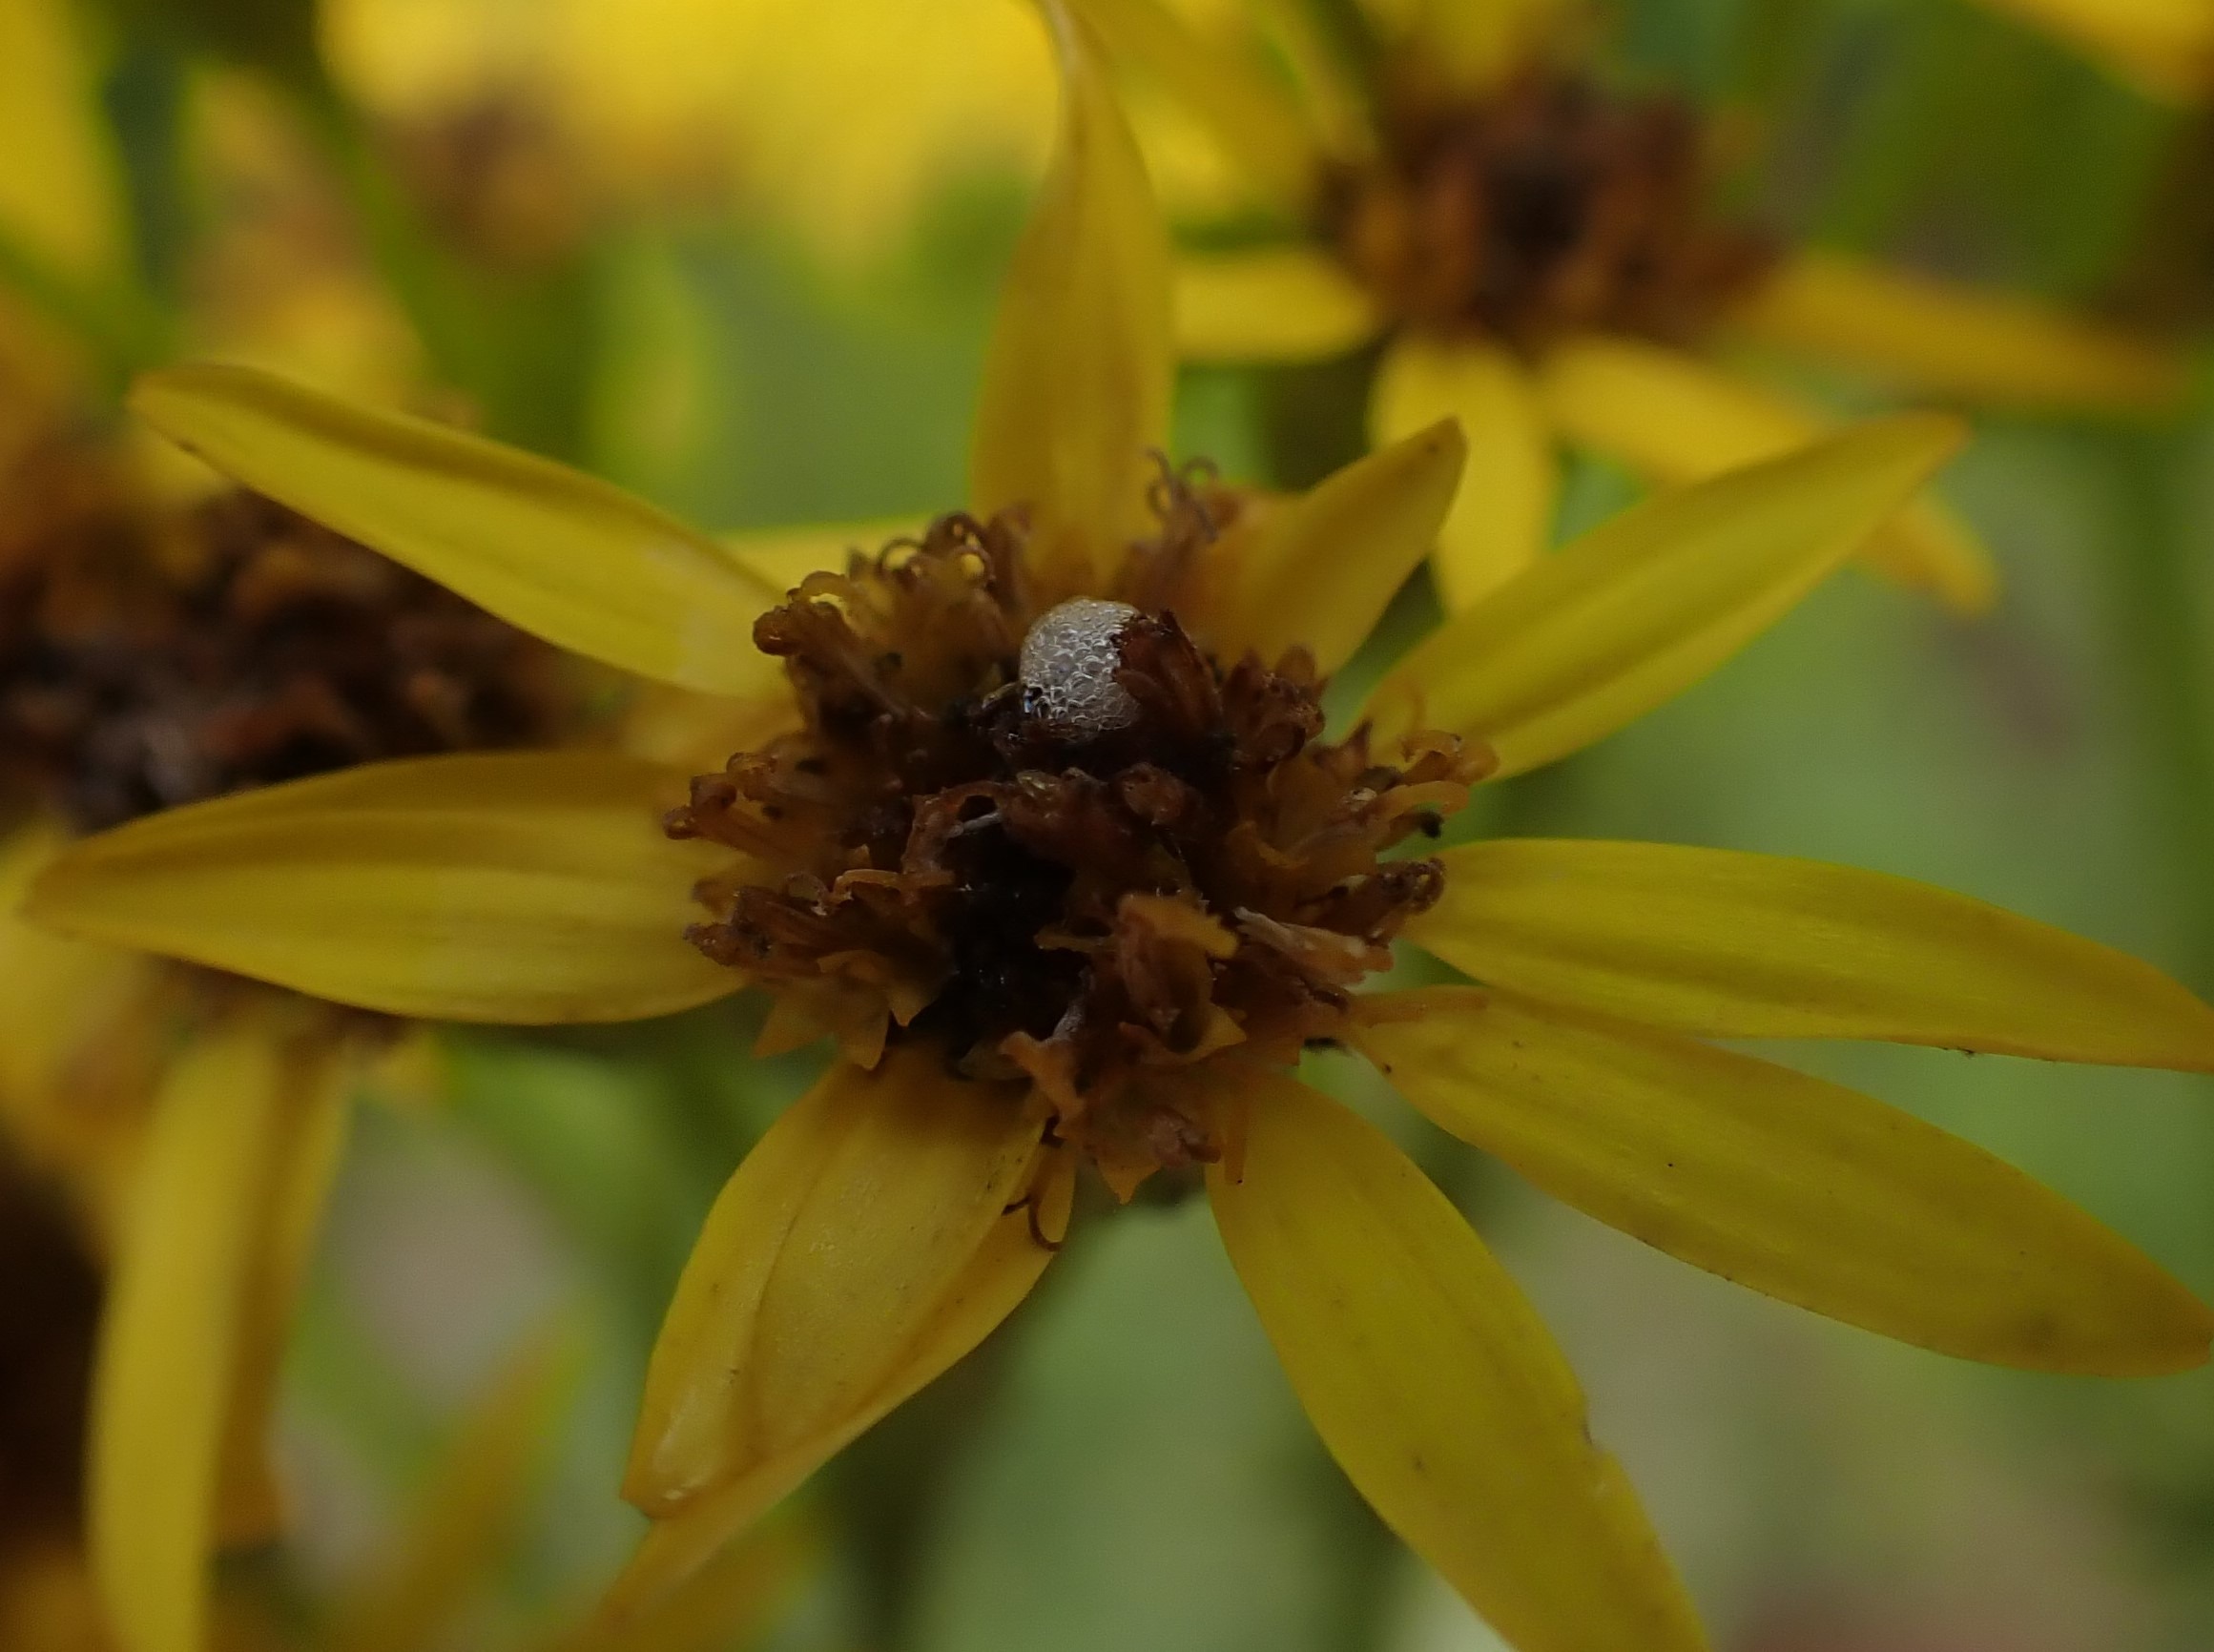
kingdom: Animalia
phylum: Arthropoda
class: Insecta
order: Diptera
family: Anthomyiidae
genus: Botanophila
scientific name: Botanophila seneciella
